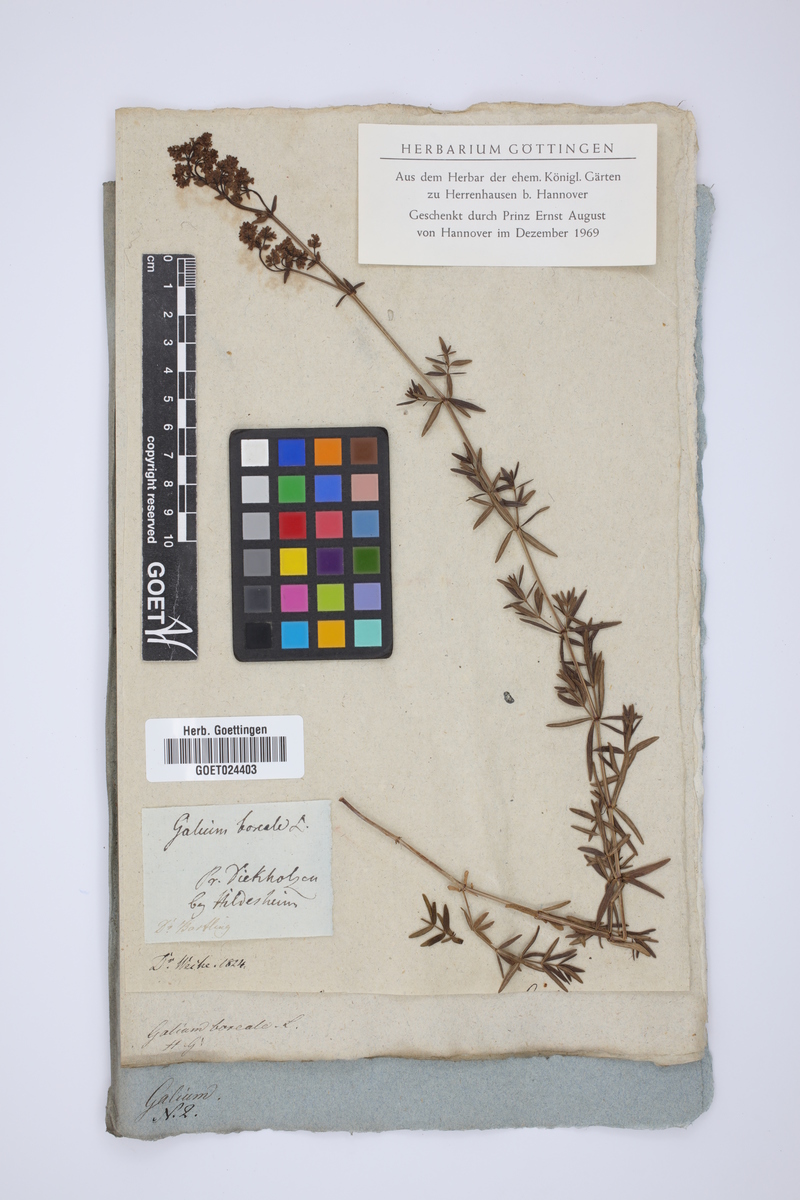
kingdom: Plantae
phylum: Tracheophyta
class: Magnoliopsida
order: Gentianales
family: Rubiaceae
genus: Galium
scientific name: Galium boreale
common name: Northern bedstraw
